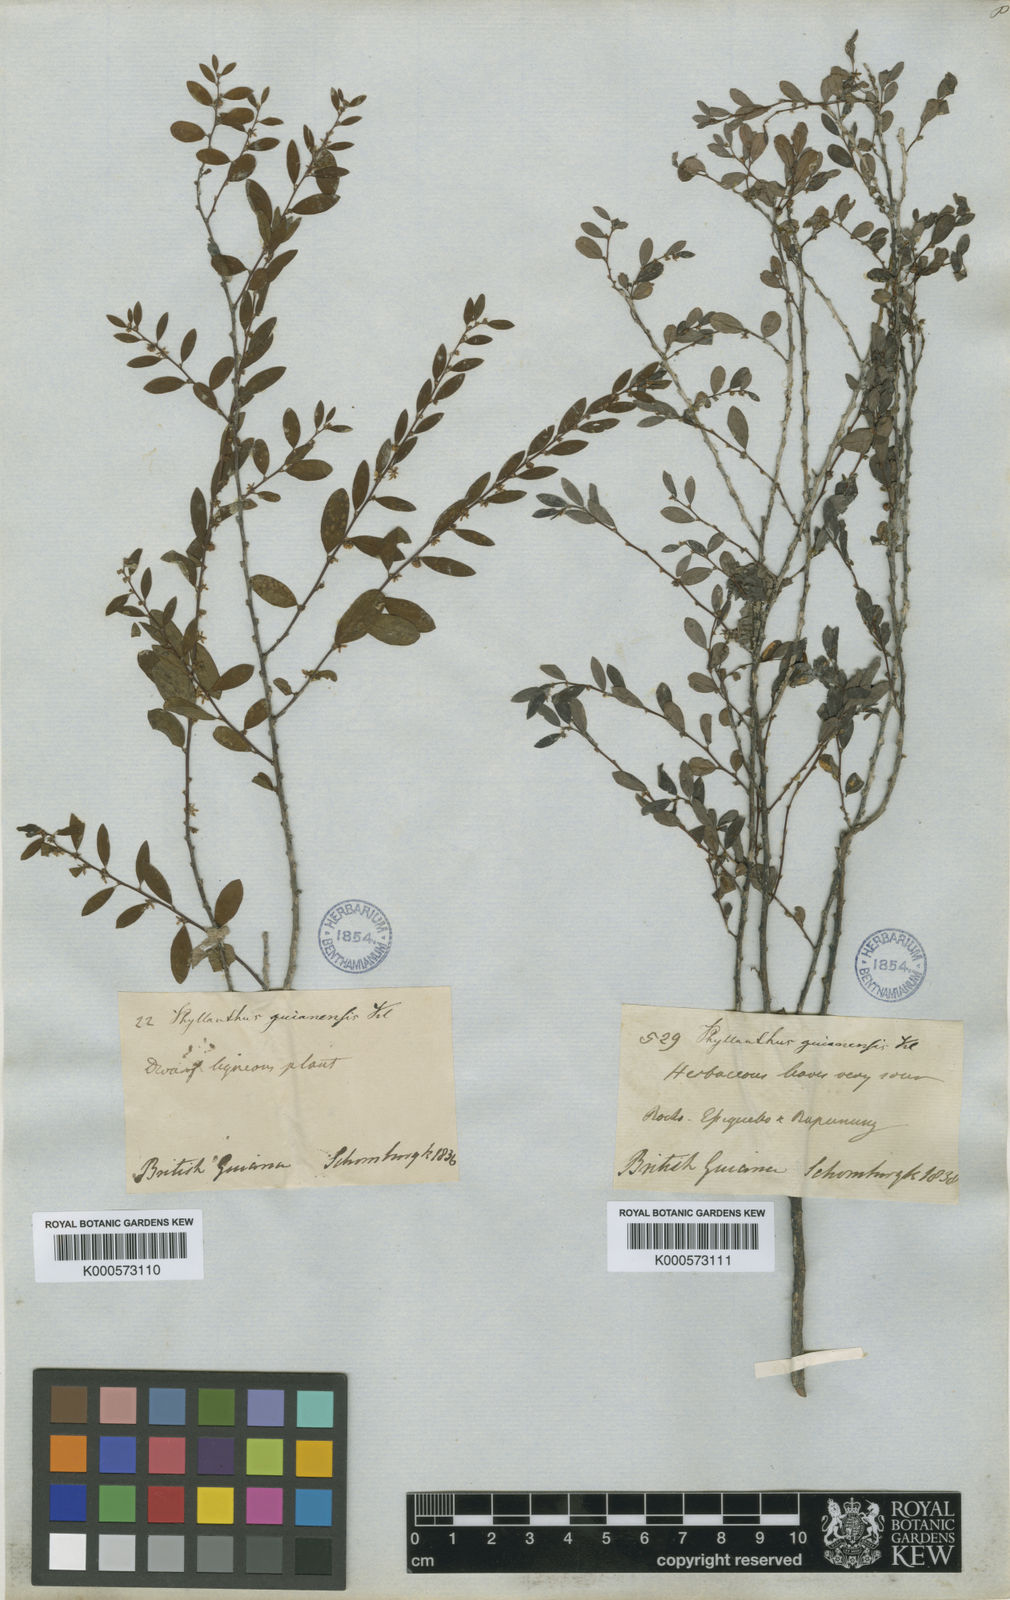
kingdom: Plantae
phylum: Tracheophyta
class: Magnoliopsida
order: Malpighiales
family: Phyllanthaceae
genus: Phyllanthus
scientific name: Phyllanthus caroliniensis
